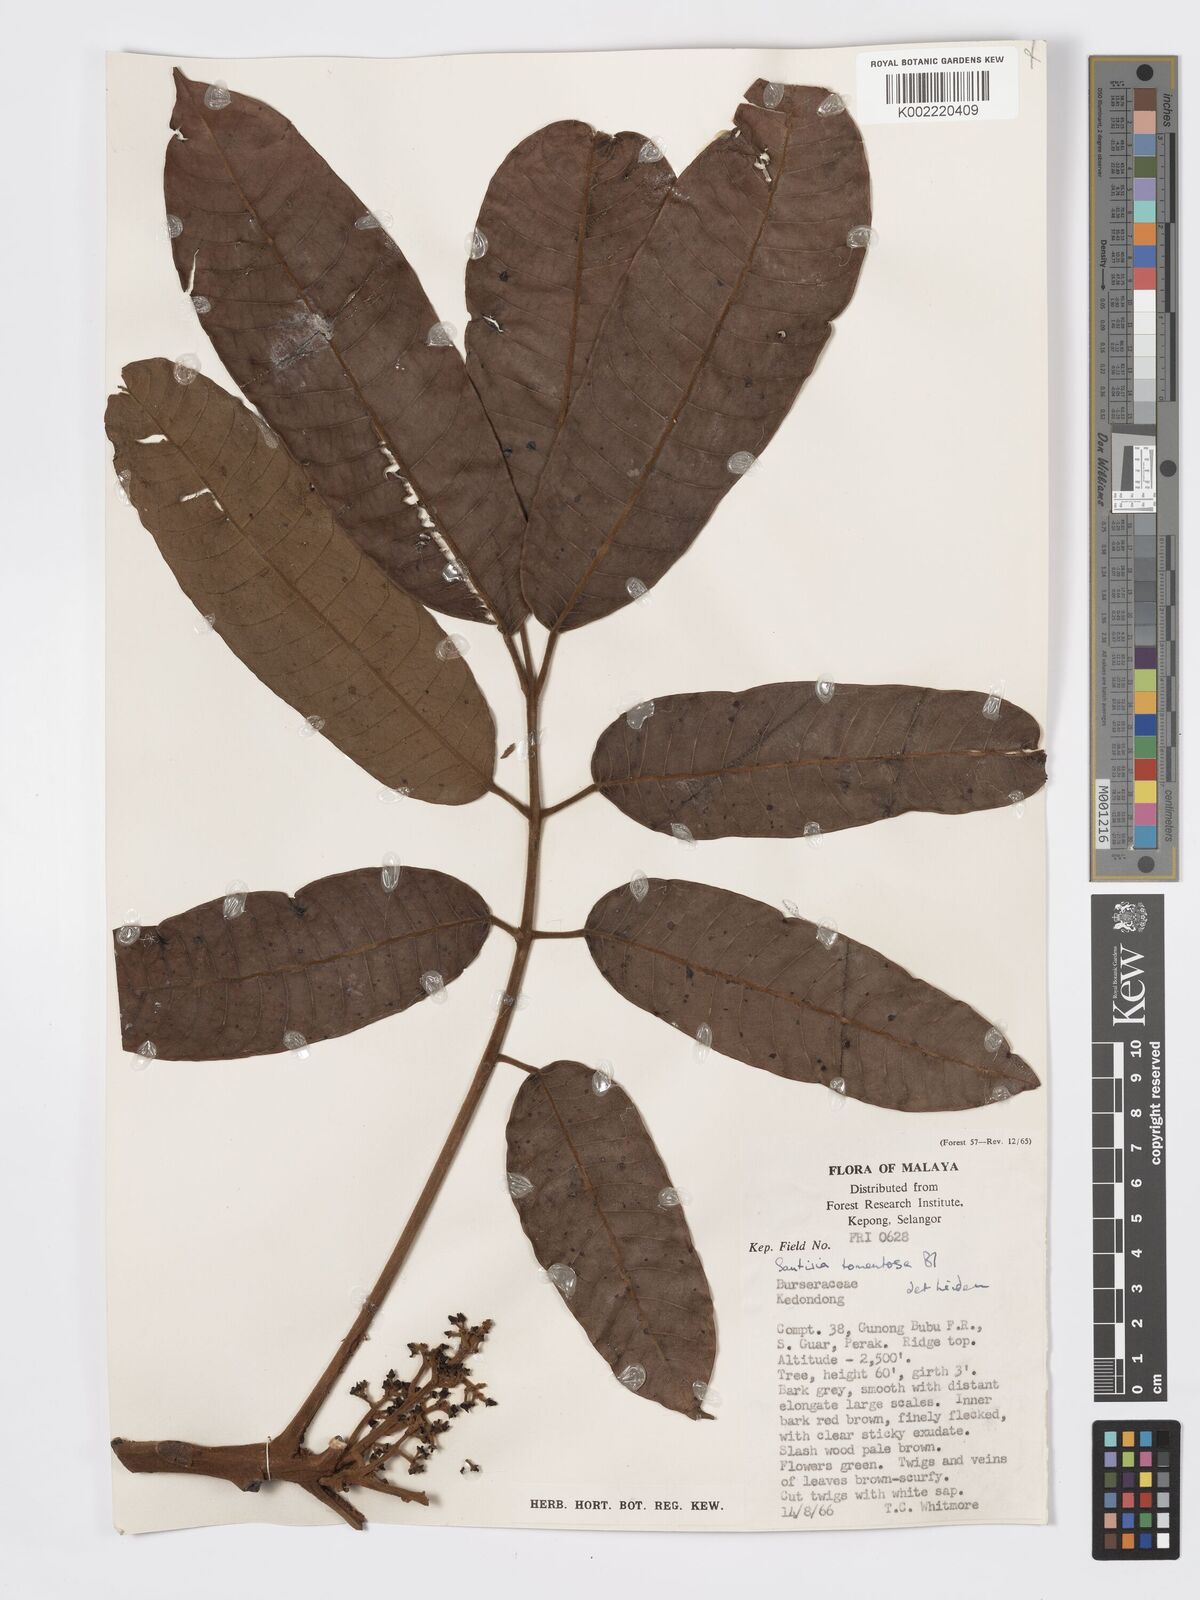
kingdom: Plantae
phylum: Tracheophyta
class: Magnoliopsida
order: Sapindales
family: Burseraceae
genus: Santiria
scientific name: Santiria tomentosa
